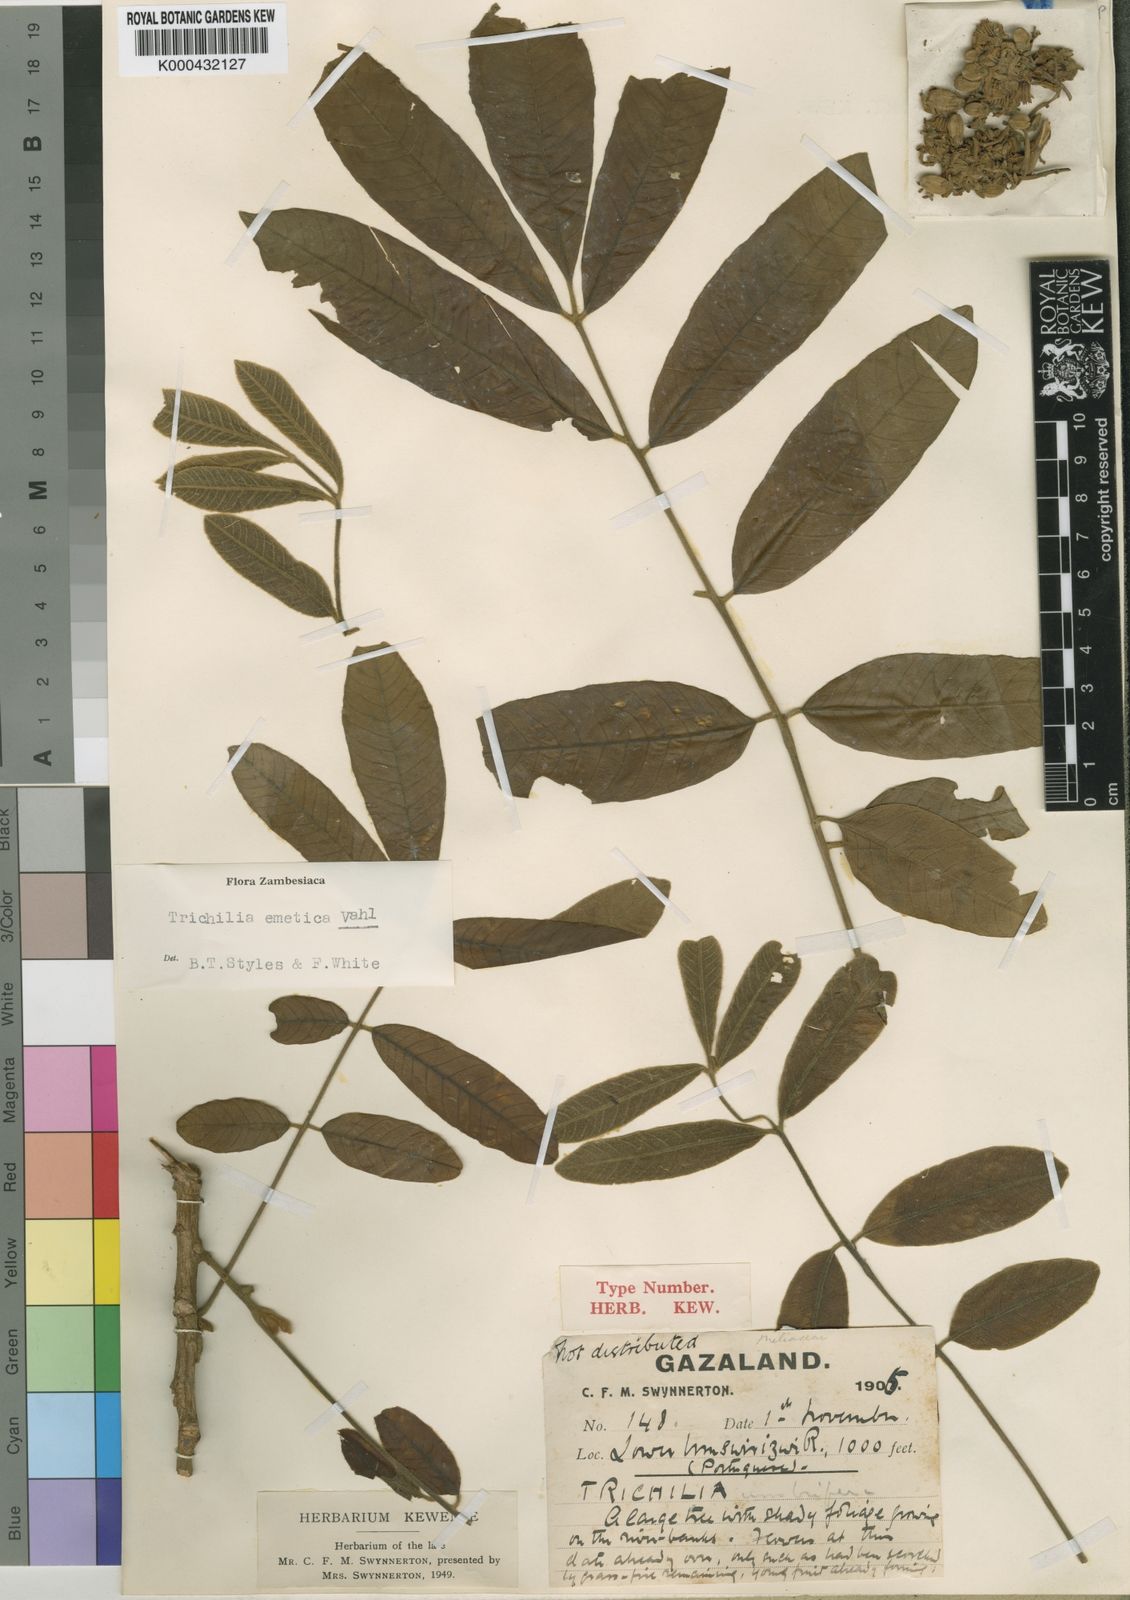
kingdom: Plantae
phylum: Tracheophyta
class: Magnoliopsida
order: Sapindales
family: Meliaceae
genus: Trichilia
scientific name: Trichilia emetica
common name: Christmas-bells
